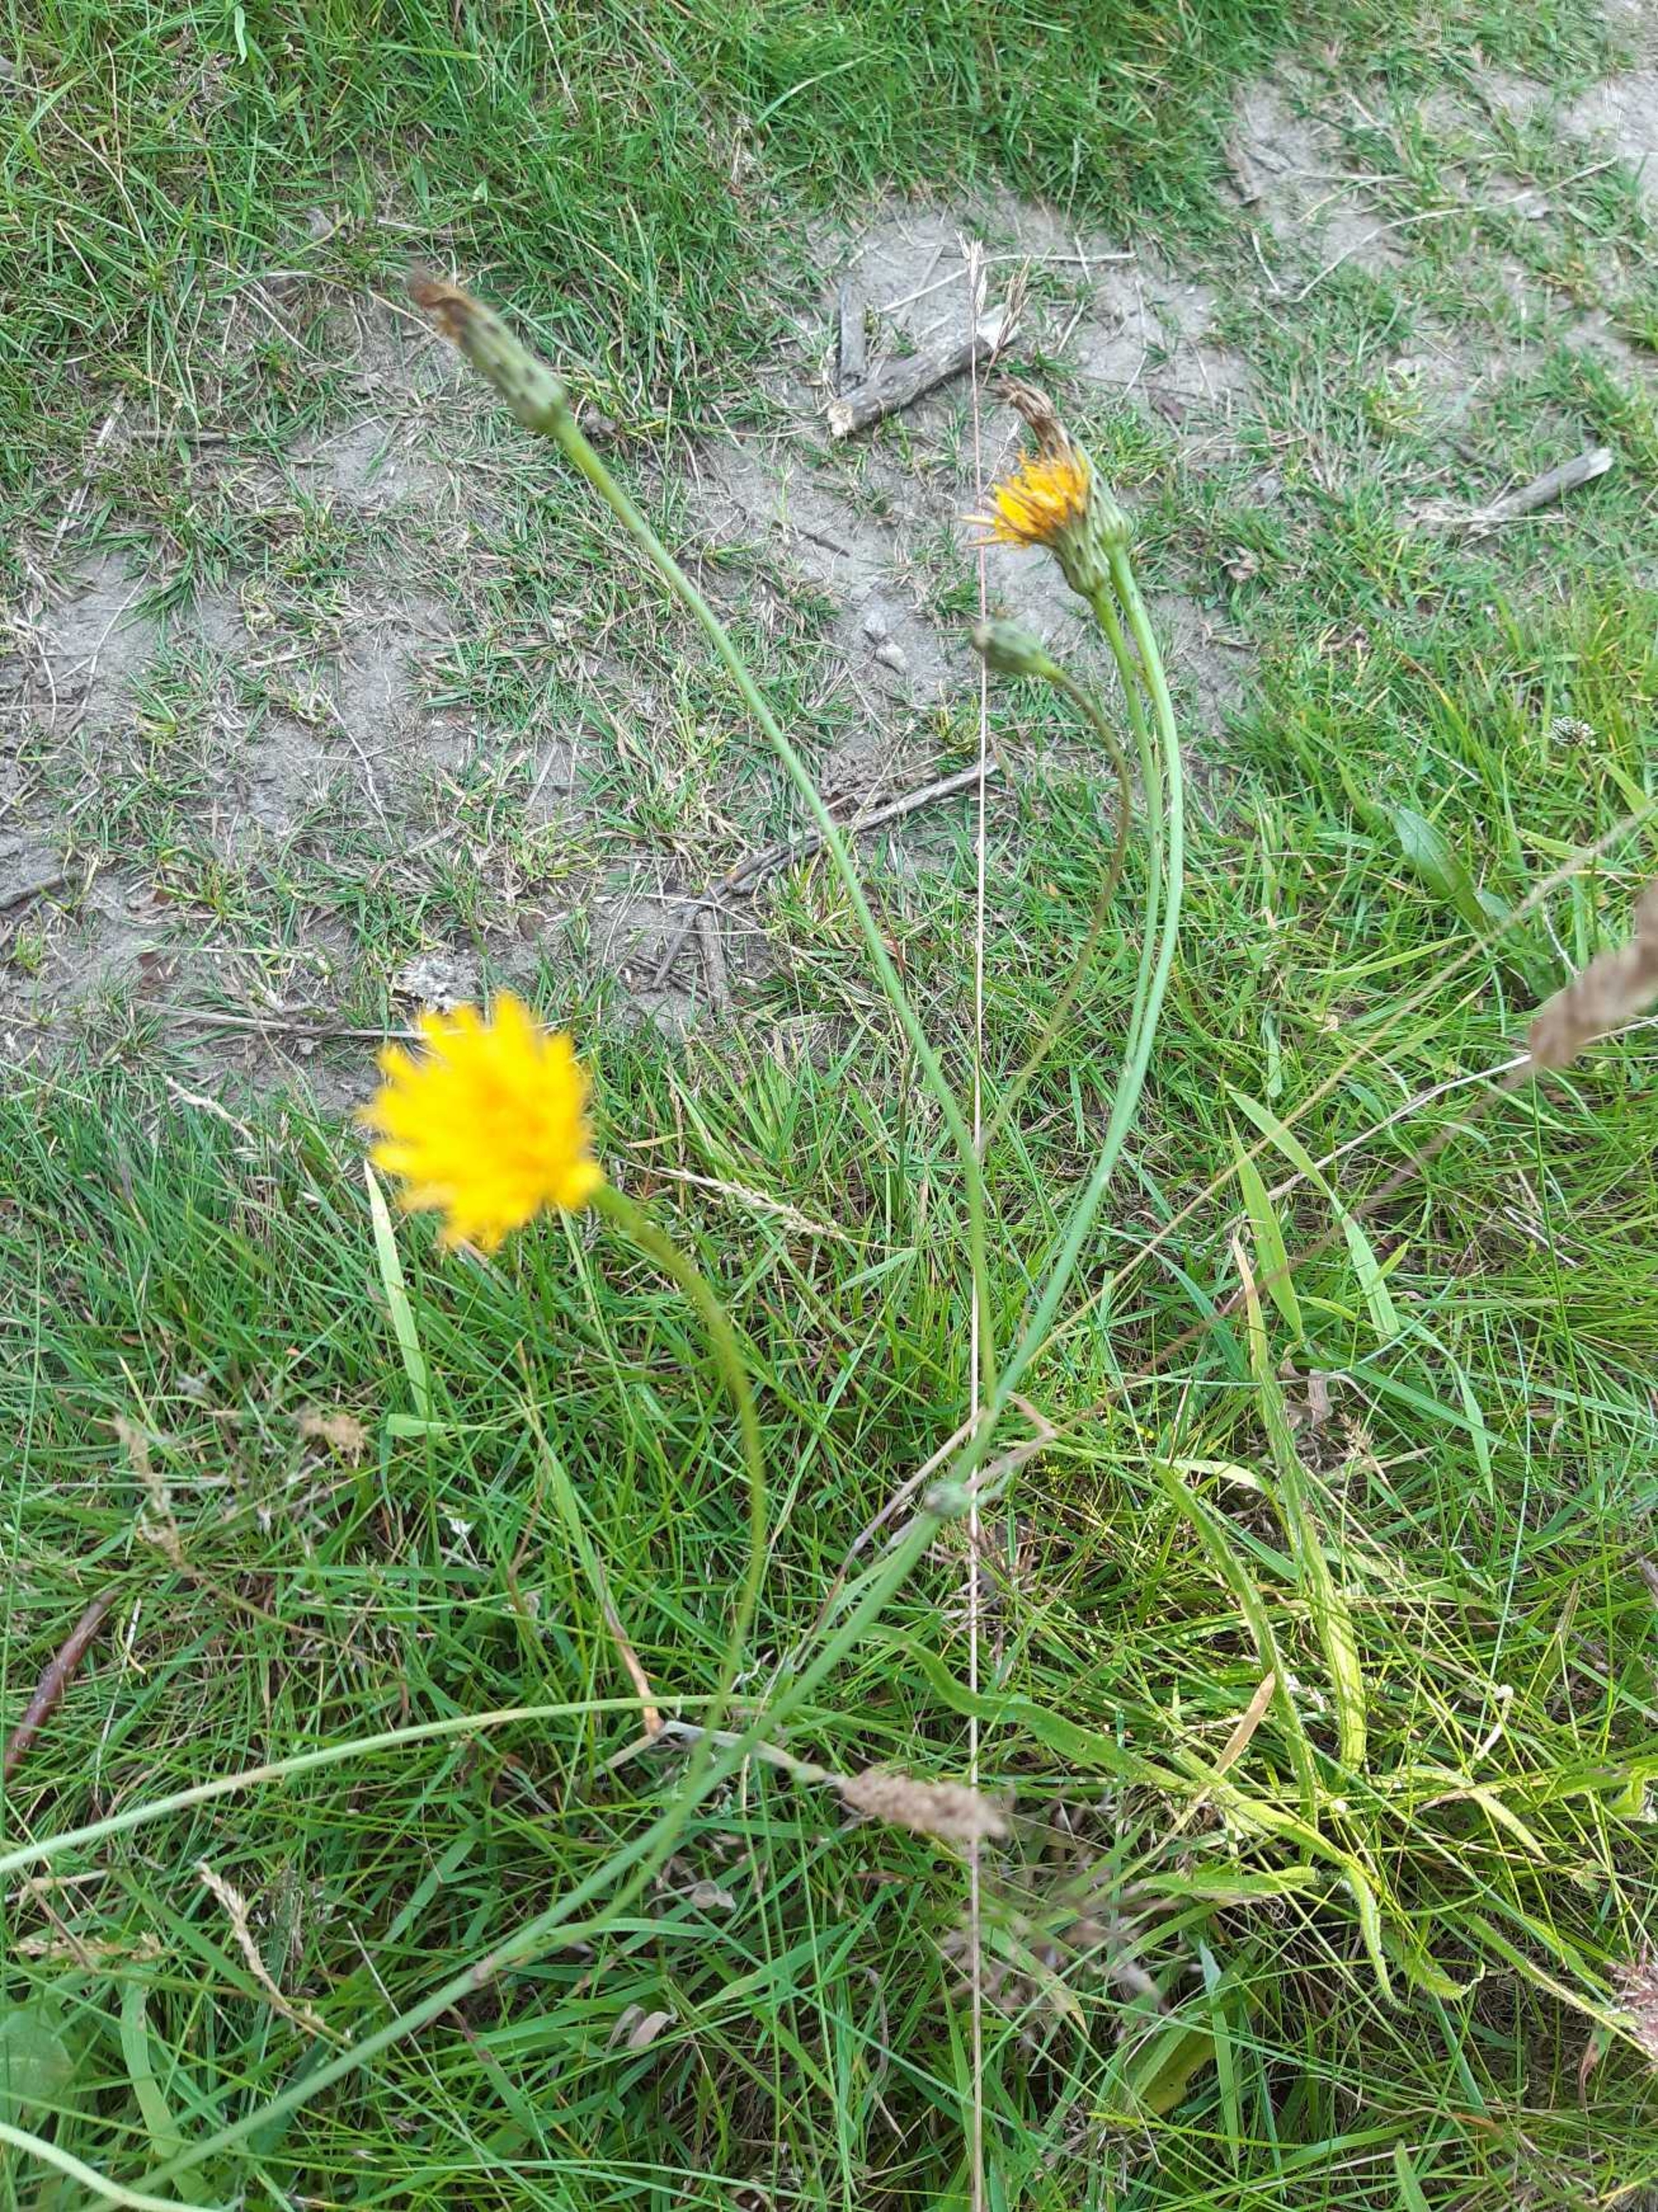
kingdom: Plantae
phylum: Tracheophyta
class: Magnoliopsida
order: Asterales
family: Asteraceae
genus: Hypochaeris
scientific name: Hypochaeris radicata
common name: Almindelig kongepen
